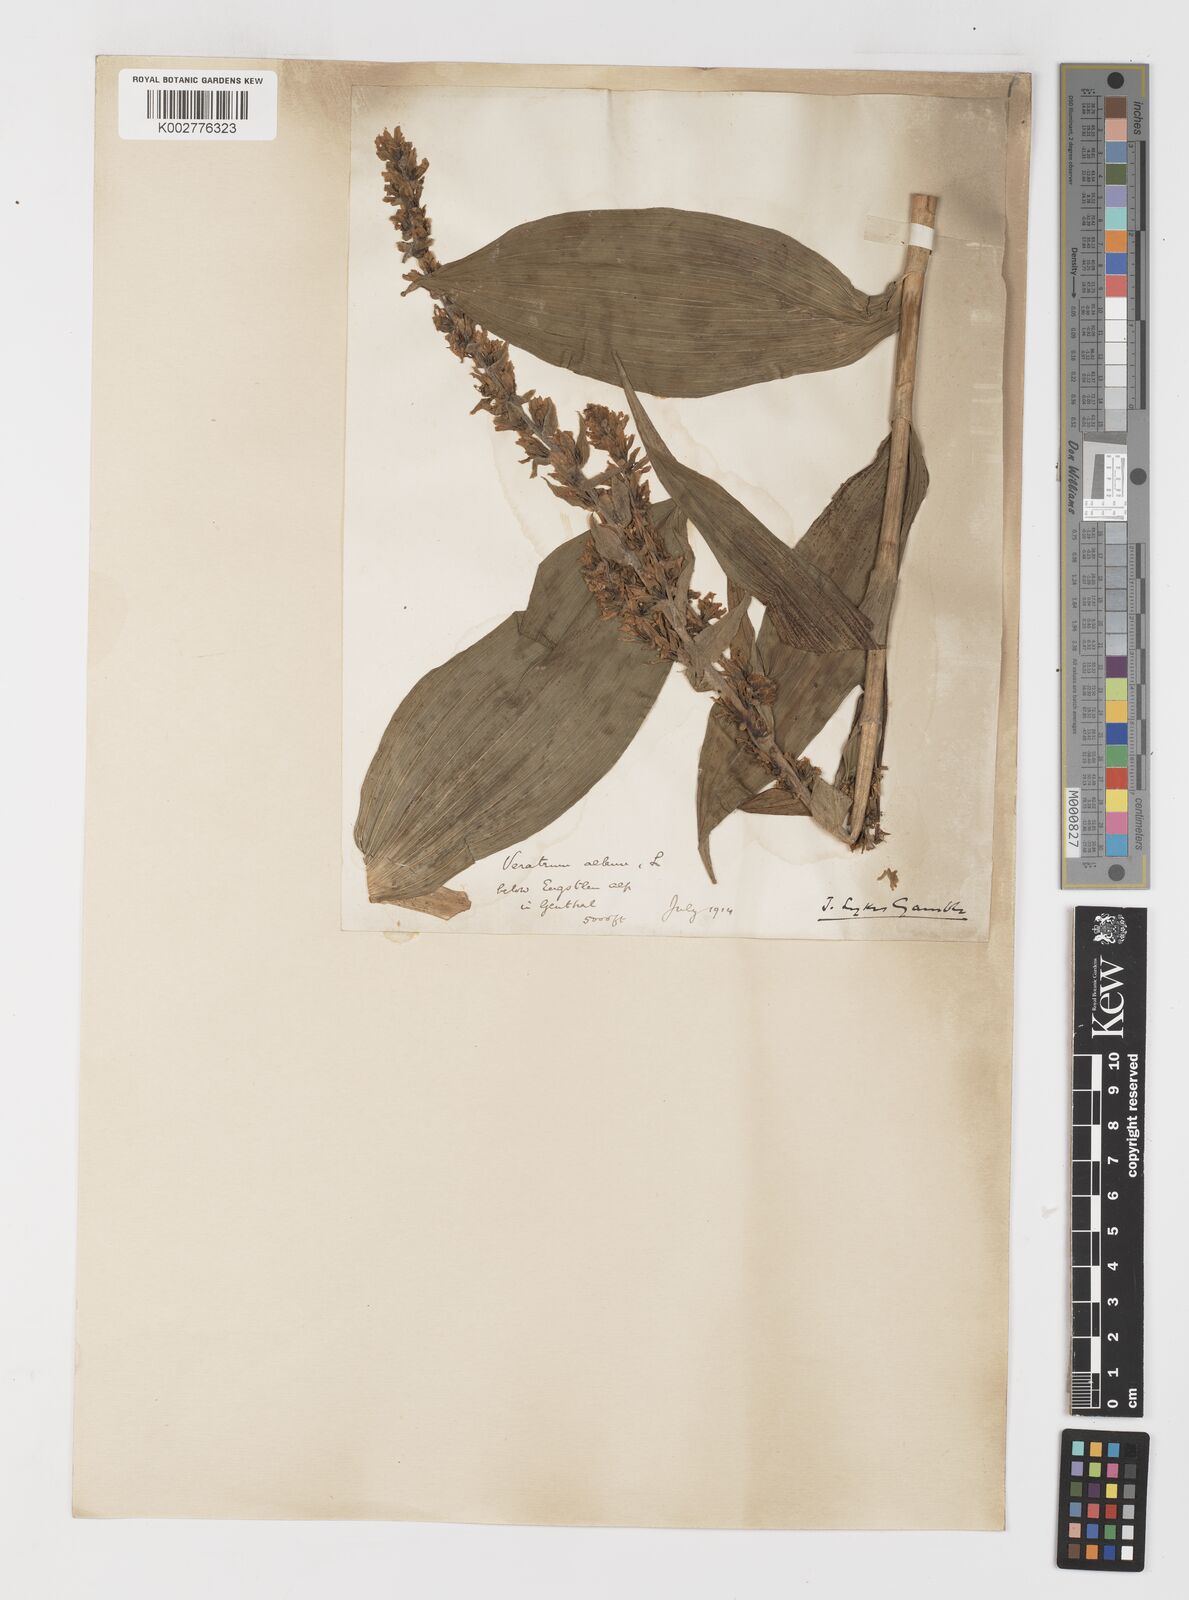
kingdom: Plantae
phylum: Tracheophyta
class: Liliopsida
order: Liliales
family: Melanthiaceae
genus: Veratrum
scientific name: Veratrum album
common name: White veratrum
